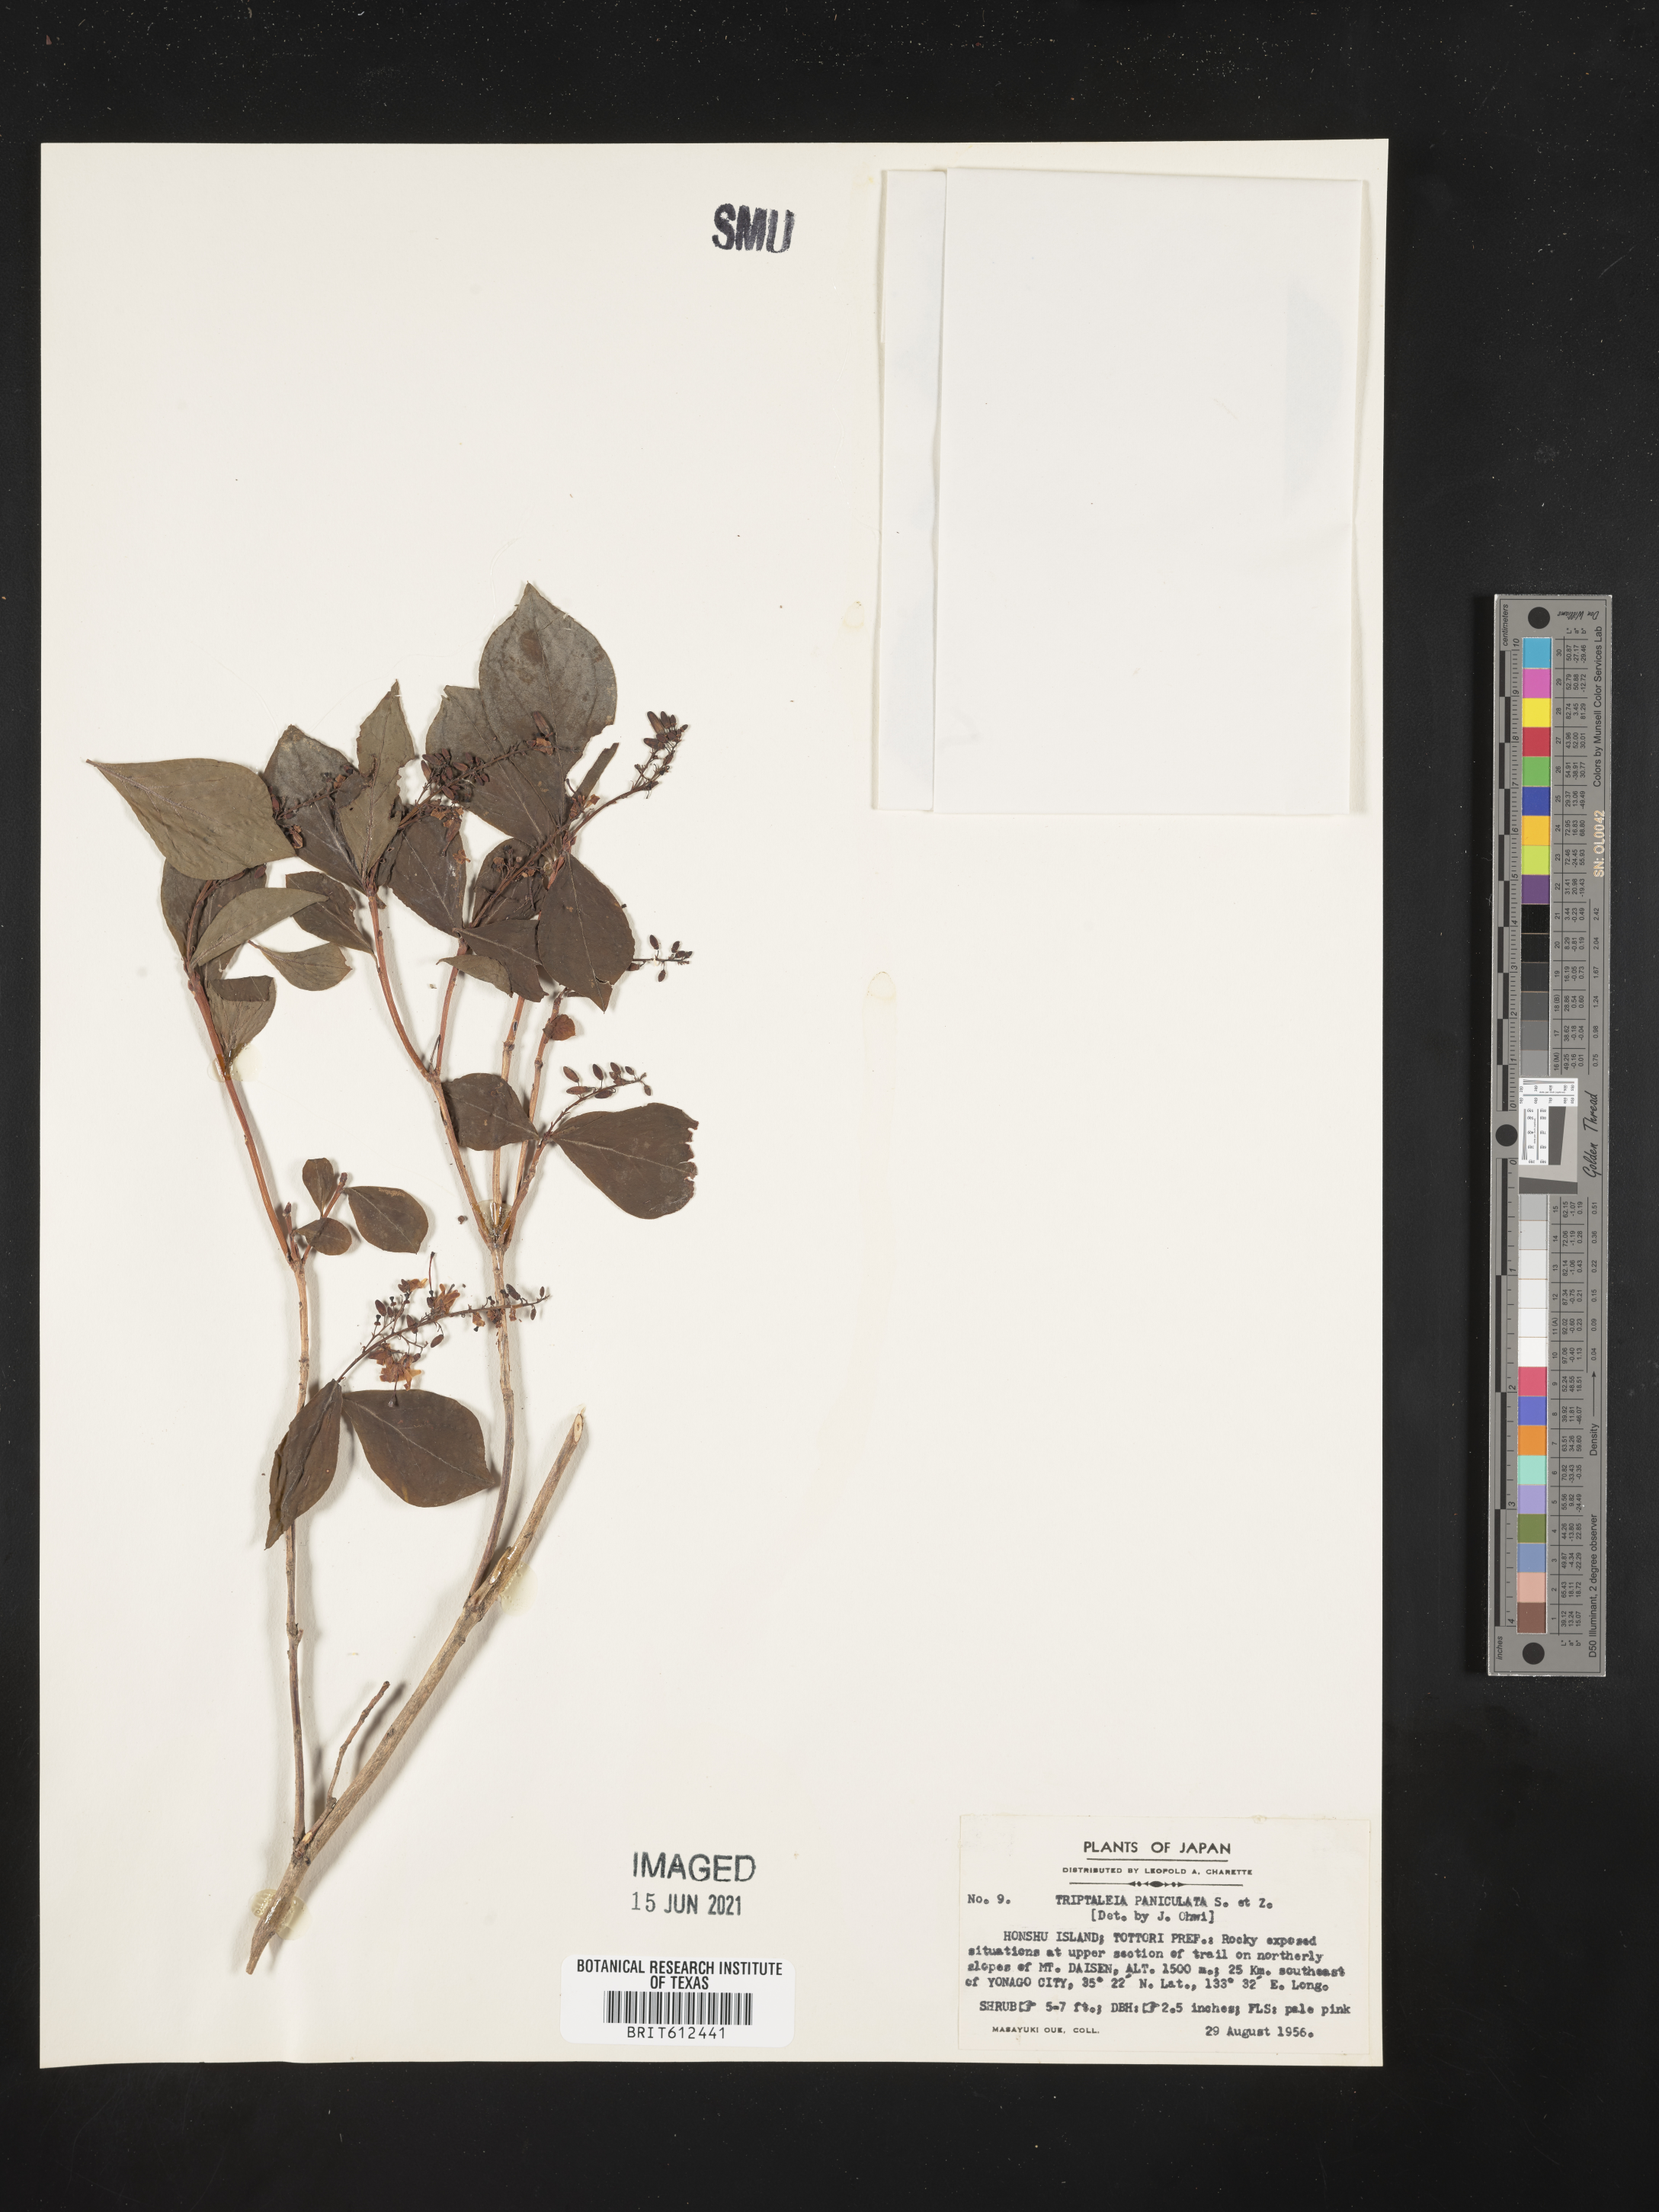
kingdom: Plantae
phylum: Tracheophyta
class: Magnoliopsida
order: Ericales
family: Ericaceae
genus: Elliottia
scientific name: Elliottia paniculata
